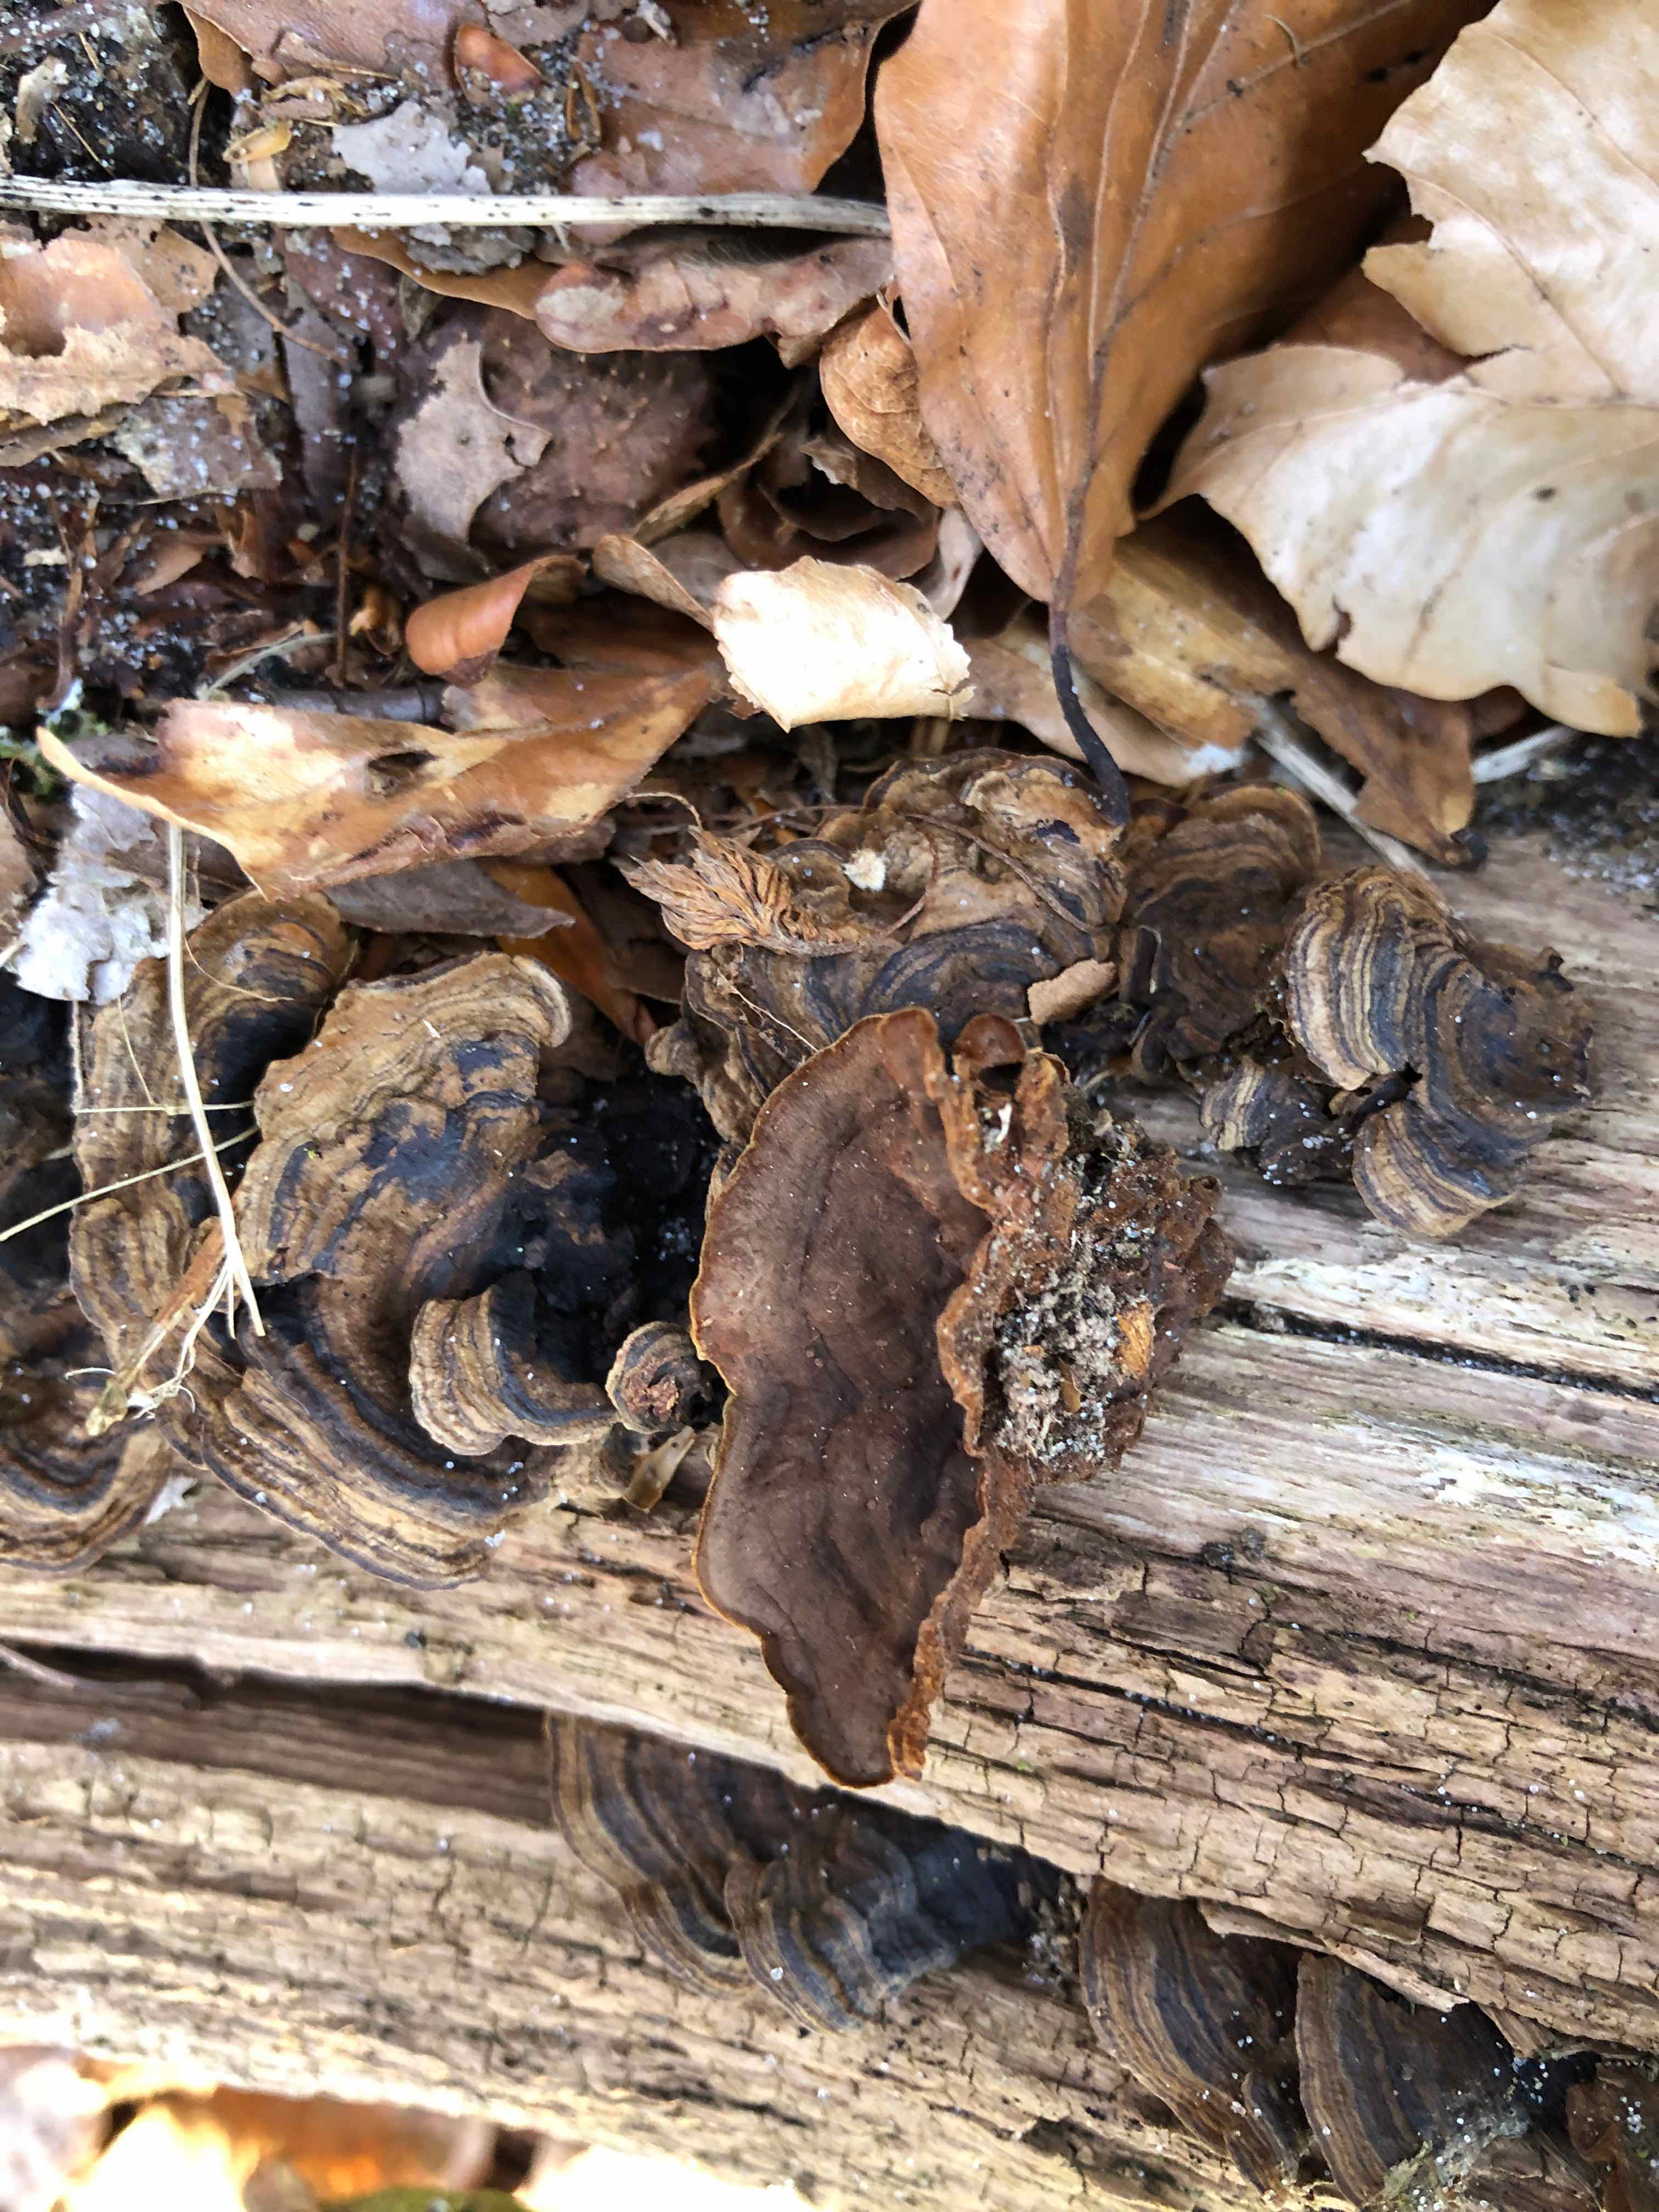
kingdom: Fungi
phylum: Basidiomycota
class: Agaricomycetes
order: Hymenochaetales
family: Hymenochaetaceae
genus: Hymenochaete
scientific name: Hymenochaete rubiginosa
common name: stiv ruslædersvamp
